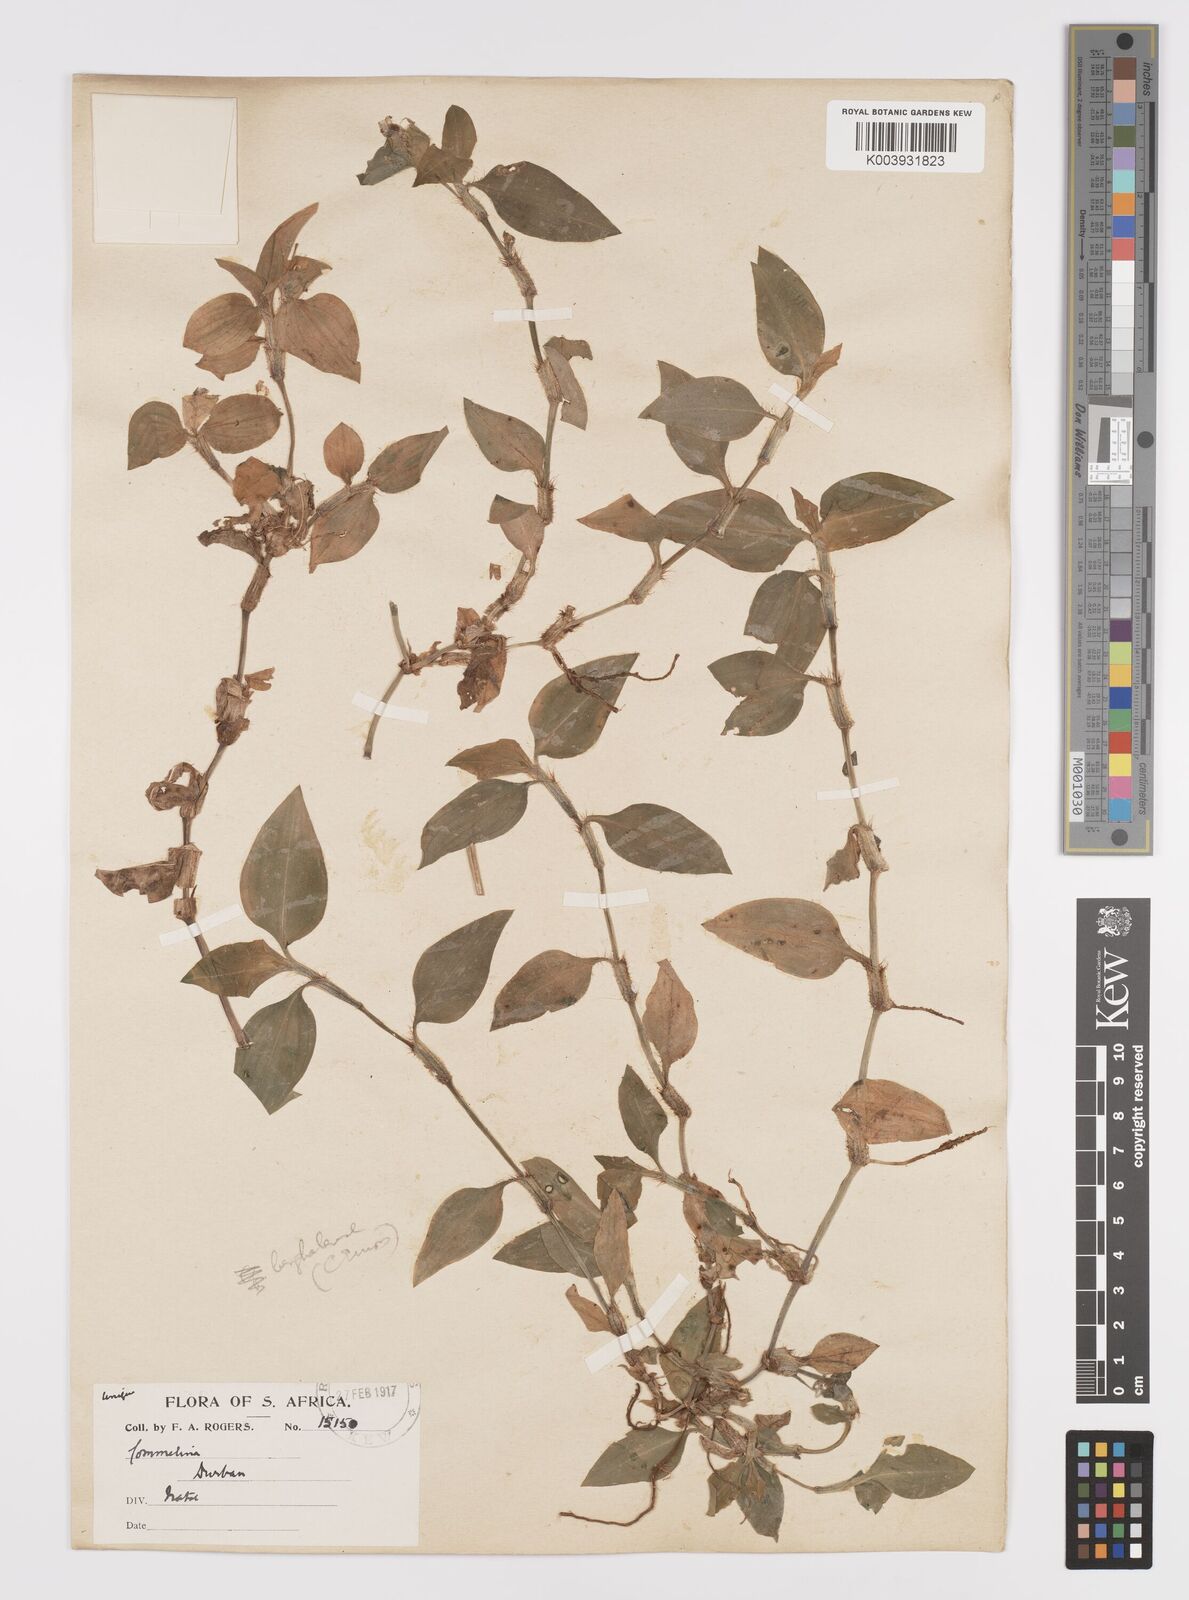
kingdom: Plantae
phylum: Tracheophyta
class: Liliopsida
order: Commelinales
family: Commelinaceae
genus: Commelina
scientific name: Commelina benghalensis
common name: Jio
